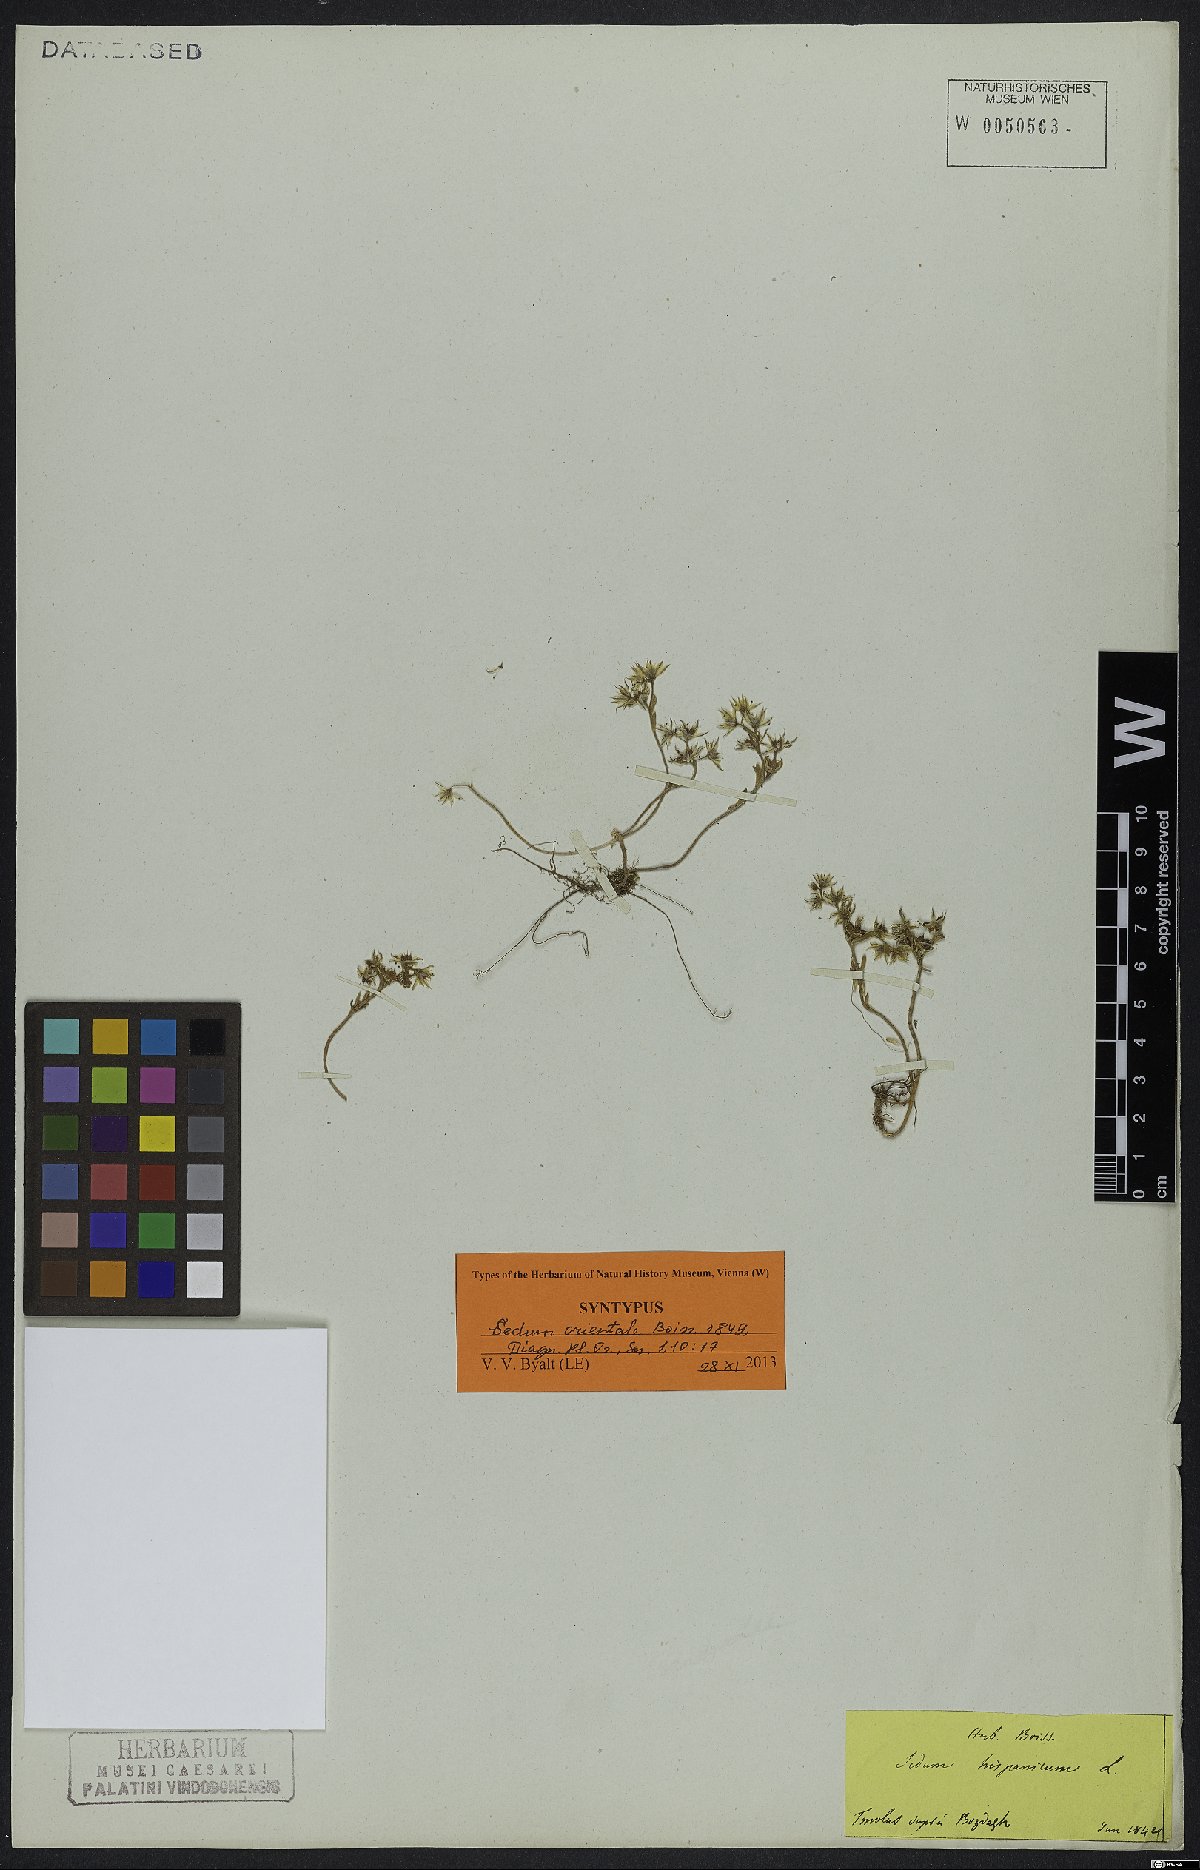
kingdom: Plantae
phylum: Tracheophyta
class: Magnoliopsida
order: Saxifragales
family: Crassulaceae
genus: Sedum
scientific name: Sedum hispanicum
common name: Spanish stonecrop
